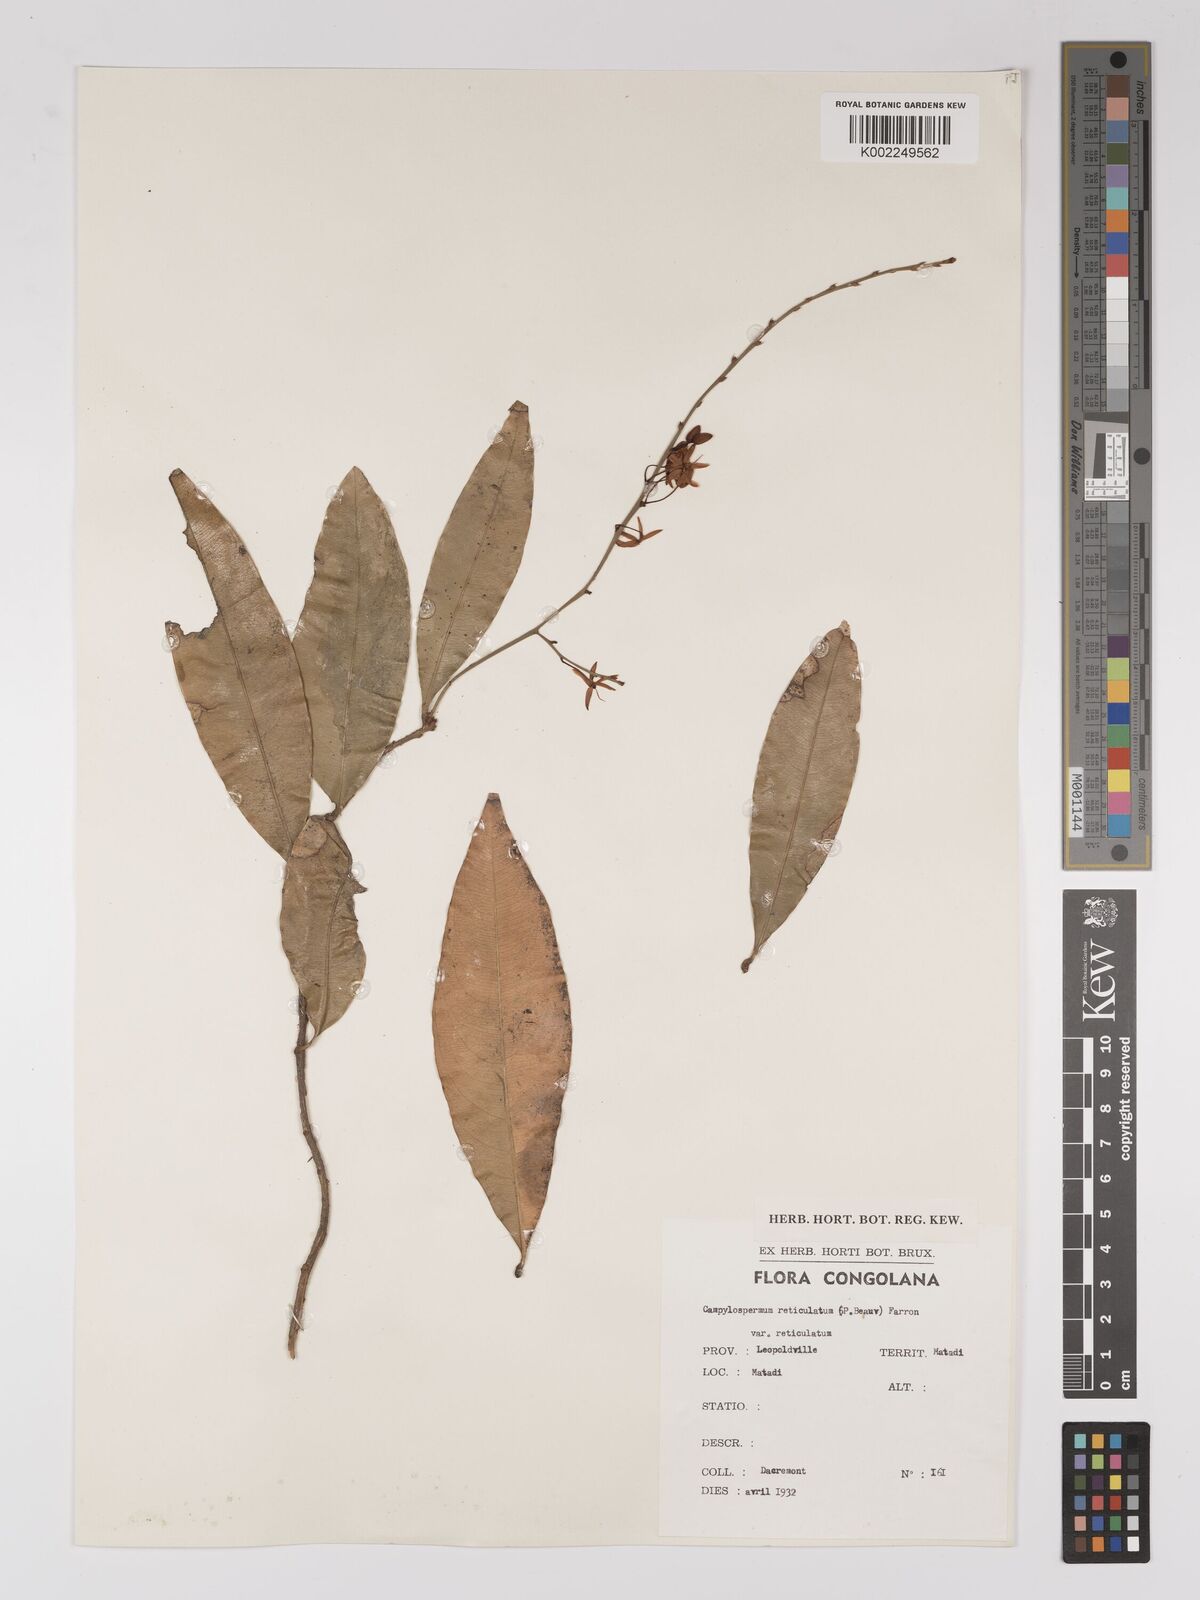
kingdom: Plantae
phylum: Tracheophyta
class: Magnoliopsida
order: Malpighiales
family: Ochnaceae
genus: Campylospermum
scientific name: Campylospermum reticulatum
